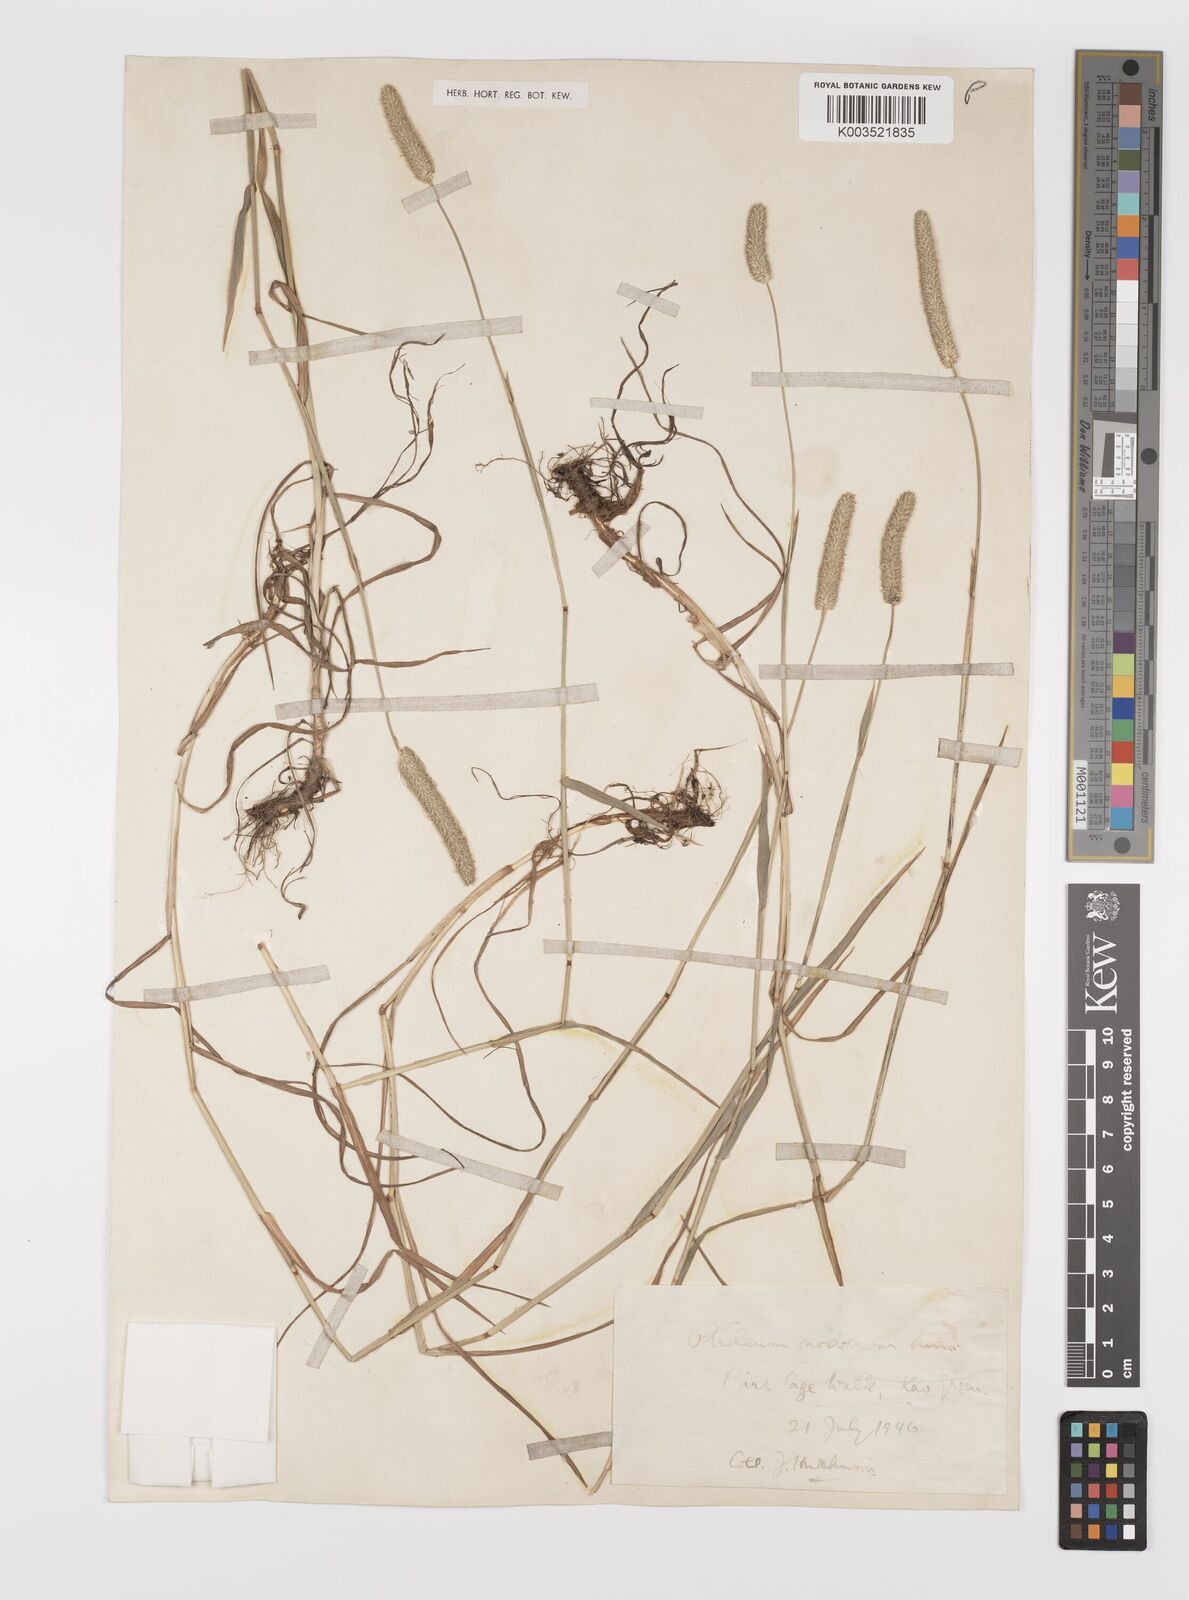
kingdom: Plantae
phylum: Tracheophyta
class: Liliopsida
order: Poales
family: Poaceae
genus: Phleum
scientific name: Phleum bertolonii
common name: Smaller cat's-tail
